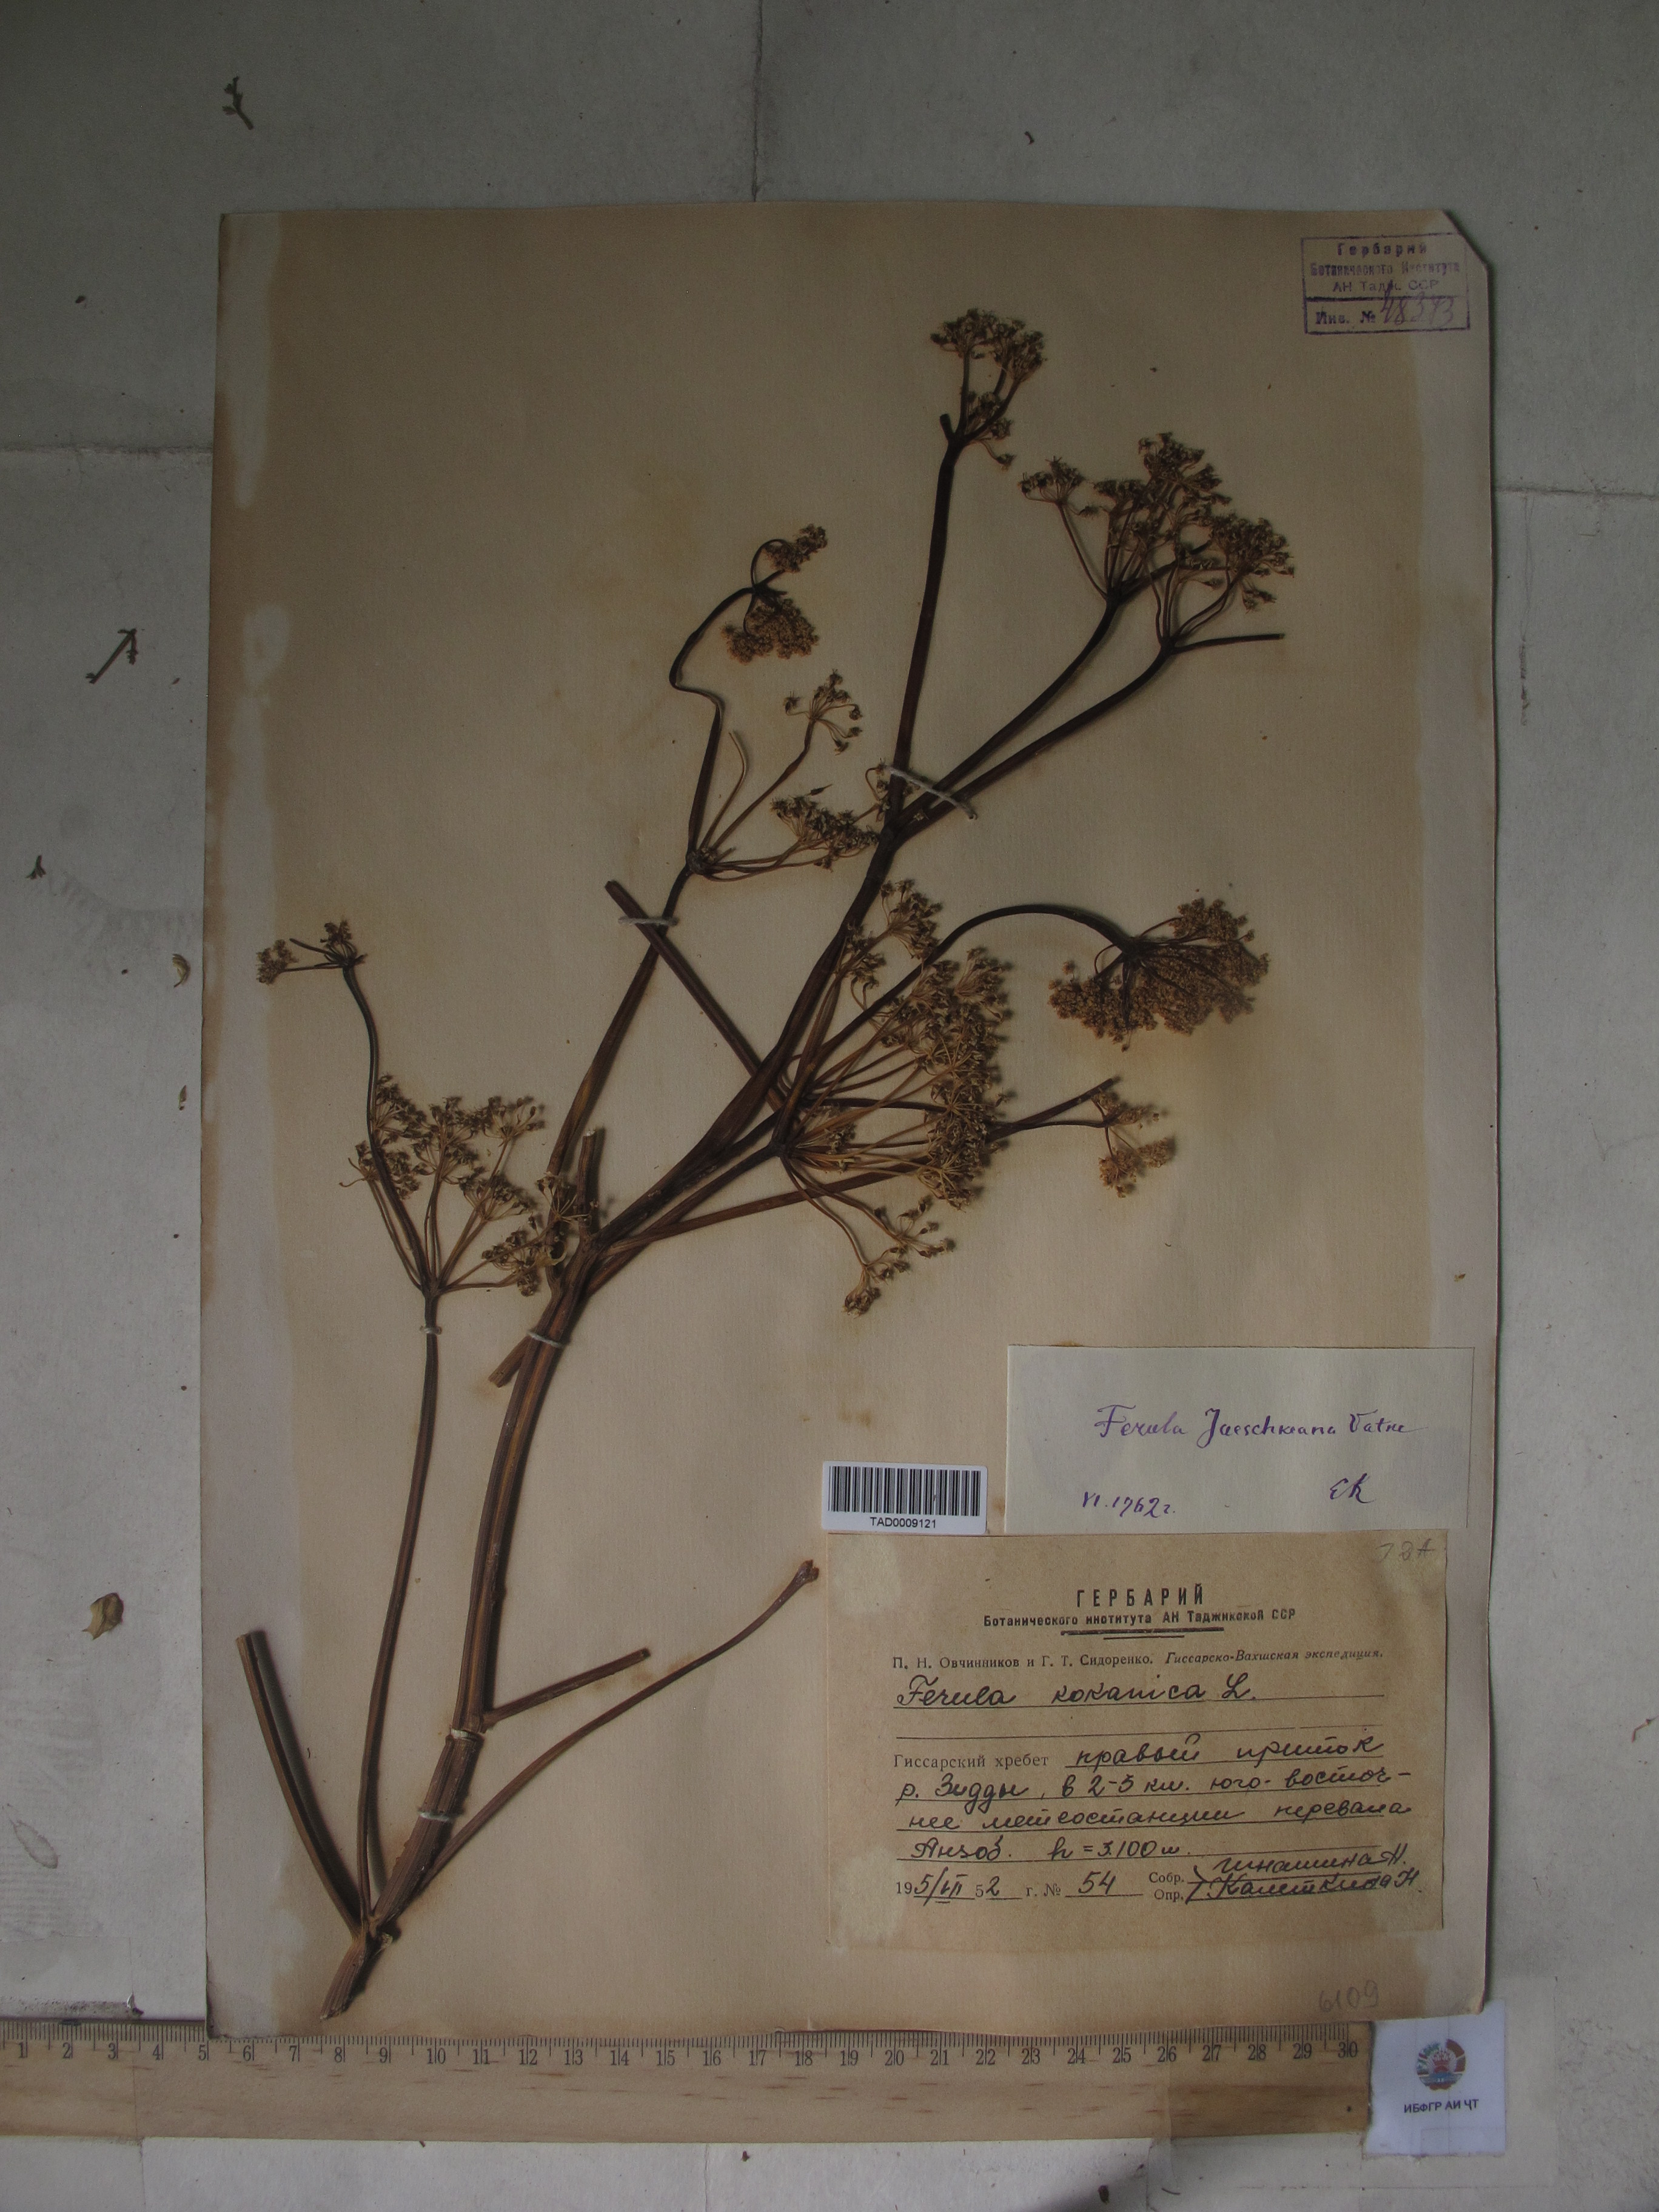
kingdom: Plantae
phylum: Tracheophyta
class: Magnoliopsida
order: Apiales
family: Apiaceae
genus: Ferula
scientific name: Ferula kokanica
